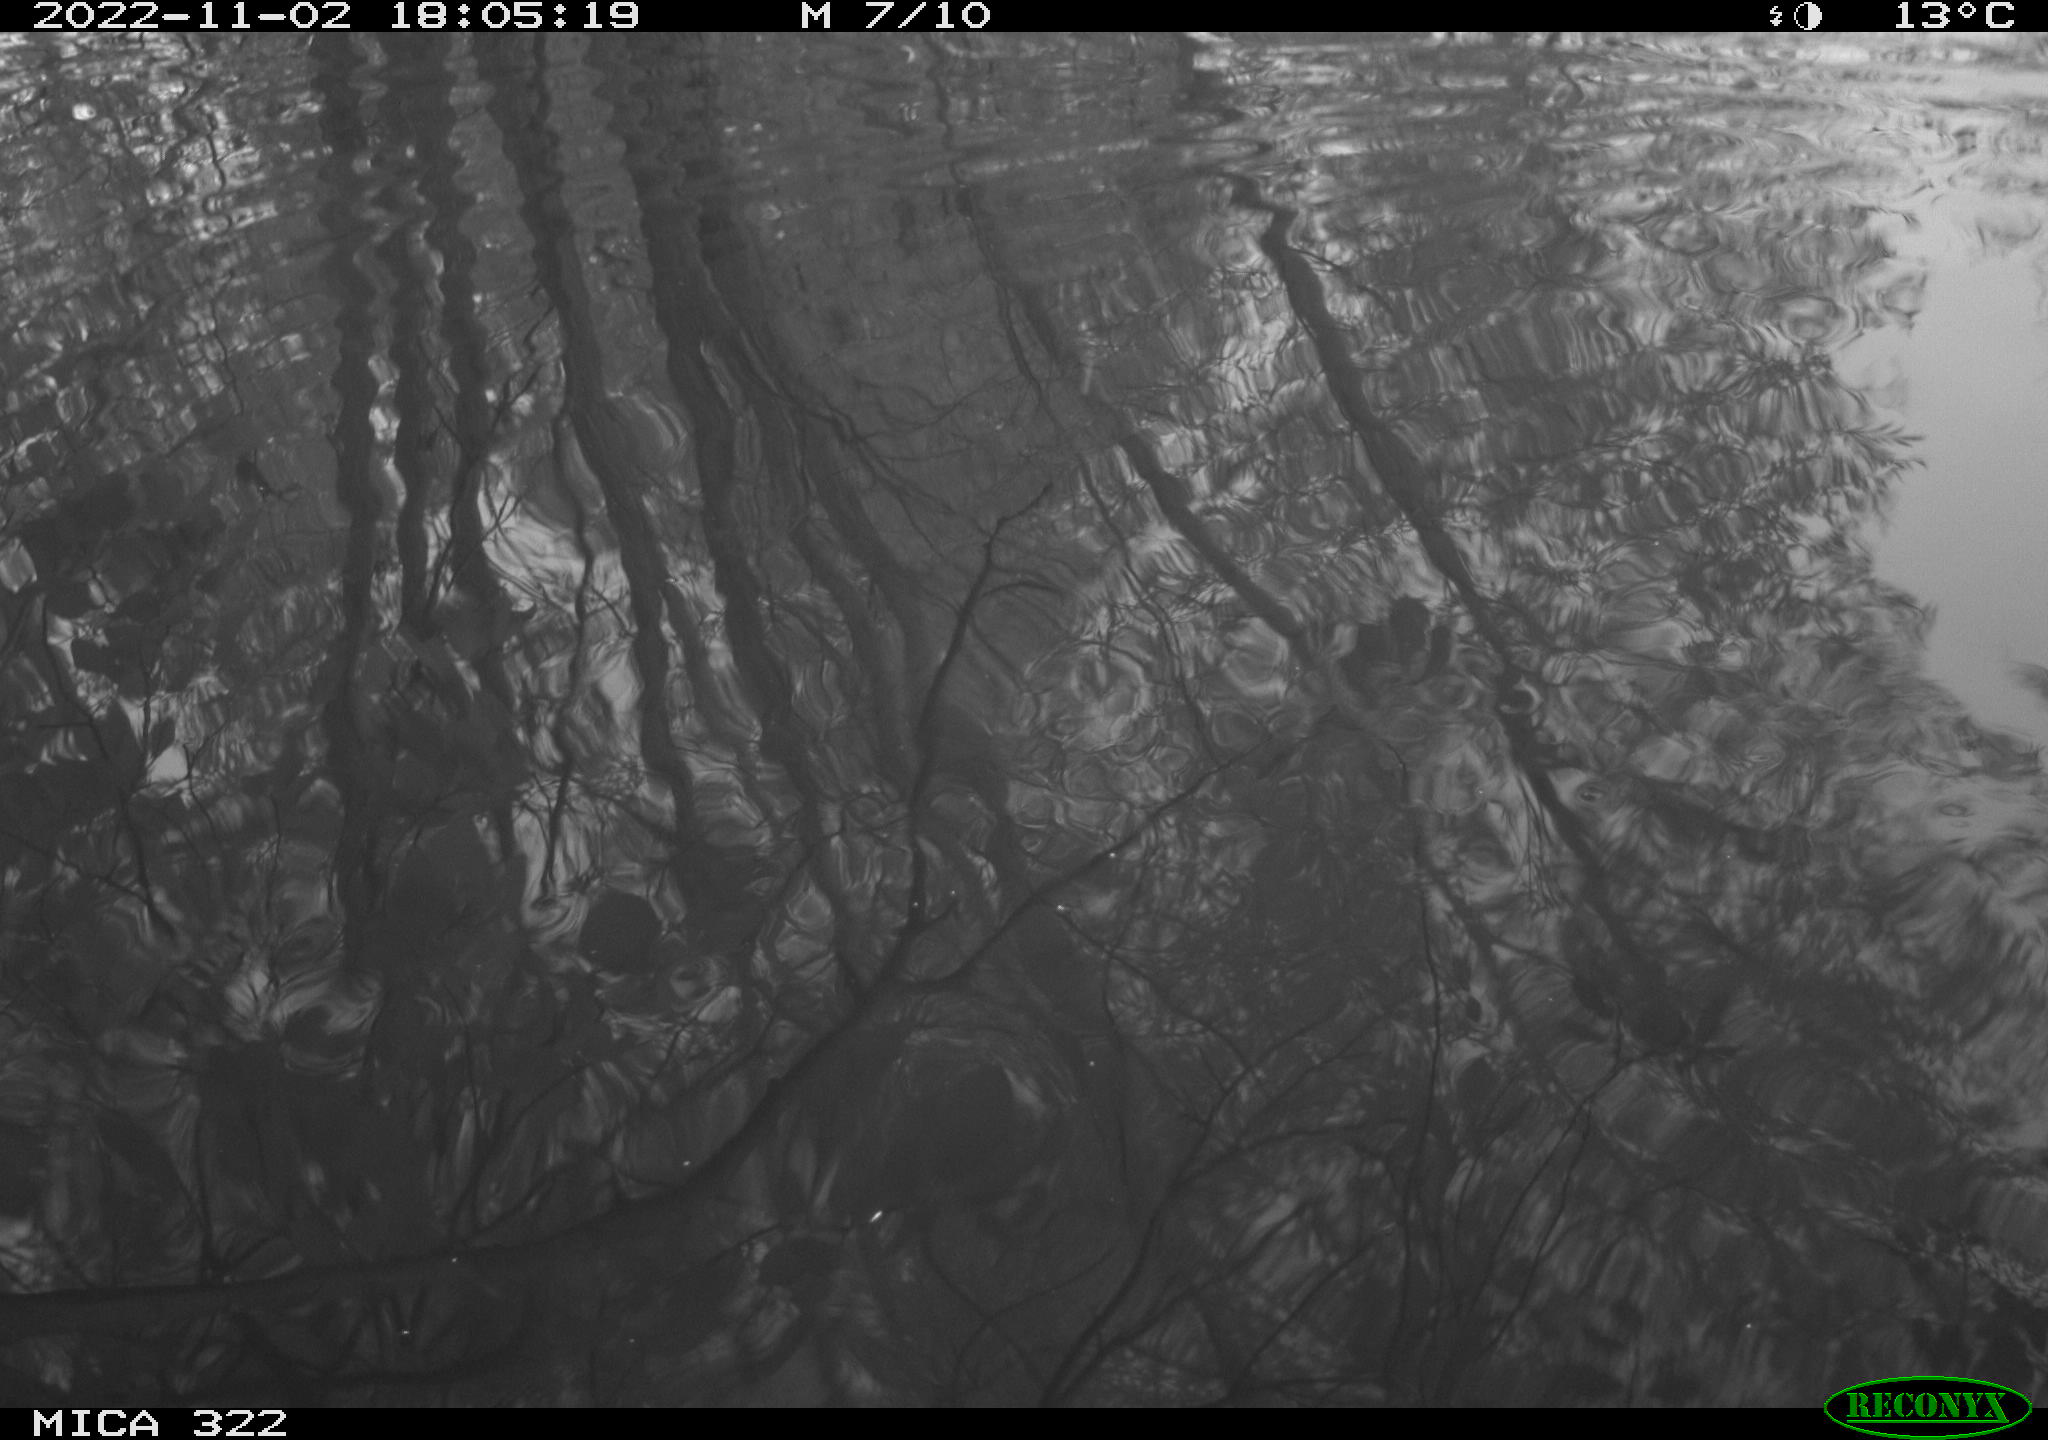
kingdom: Animalia
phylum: Chordata
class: Aves
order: Anseriformes
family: Anatidae
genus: Anas
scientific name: Anas
